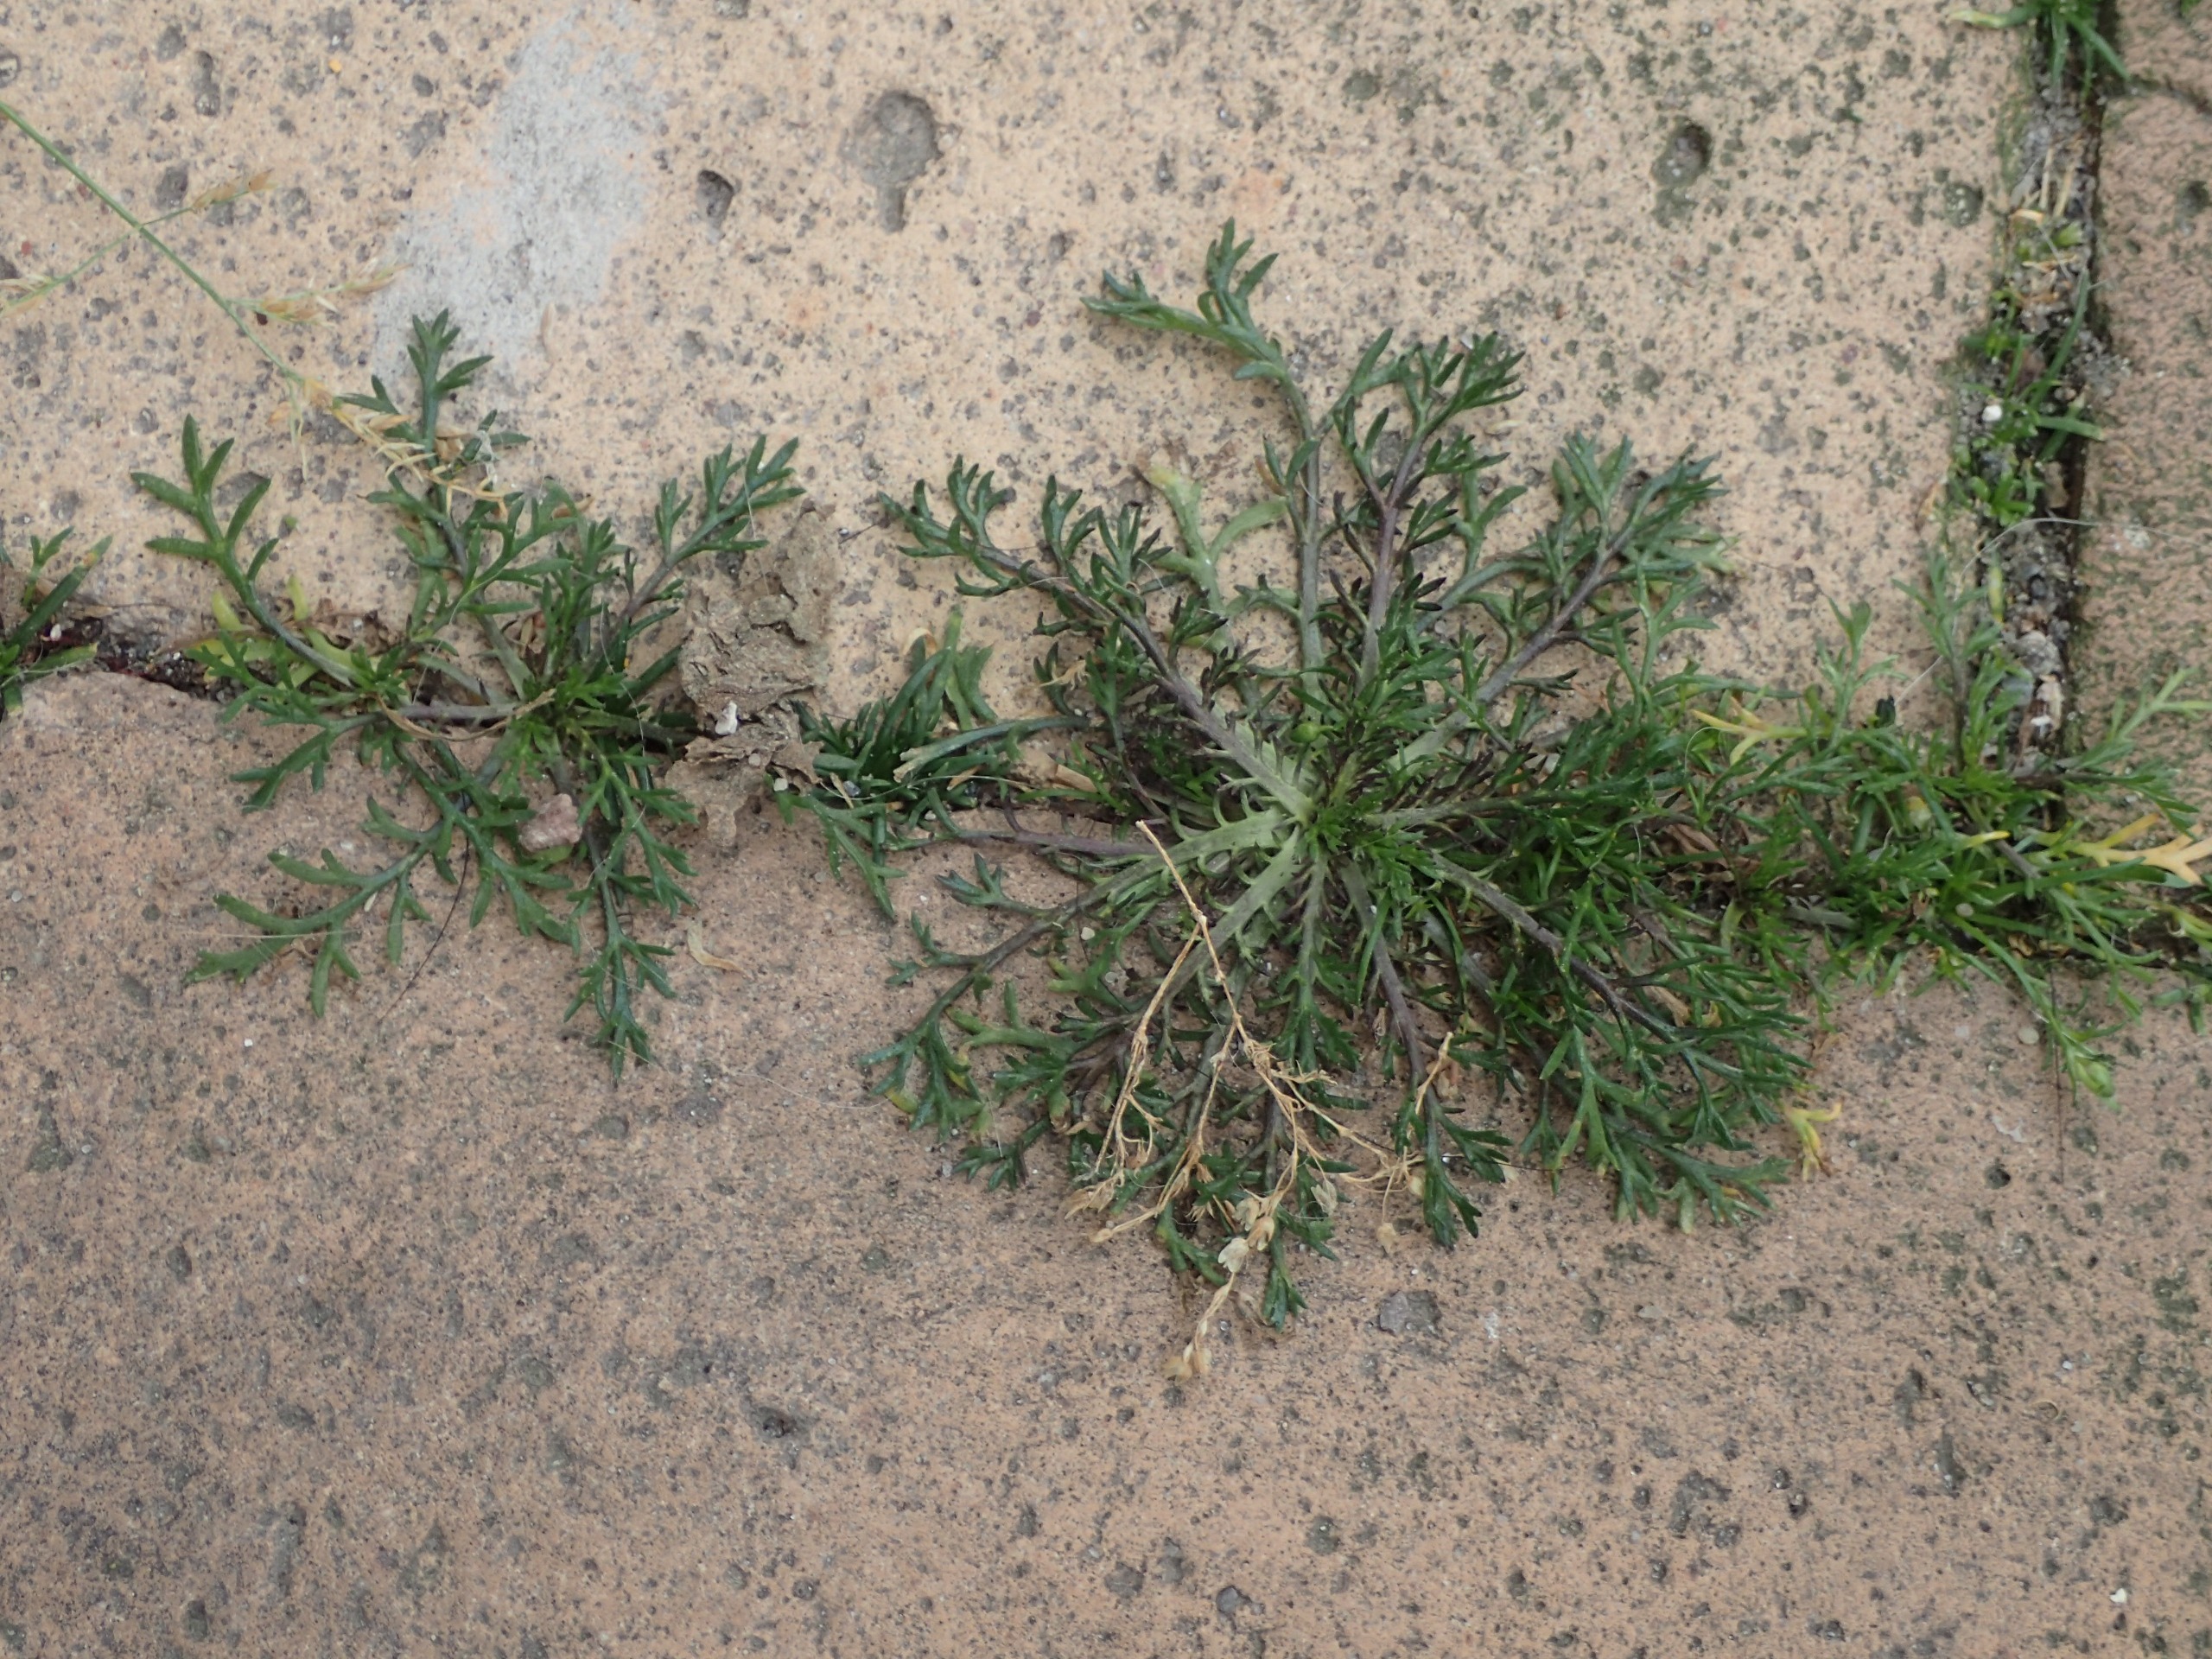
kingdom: Plantae
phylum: Tracheophyta
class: Magnoliopsida
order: Brassicales
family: Brassicaceae
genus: Lepidium
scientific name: Lepidium ruderale
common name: Stinkende karse
